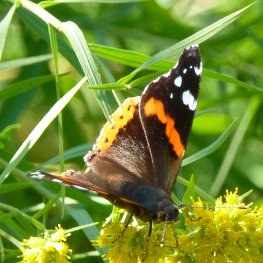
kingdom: Animalia
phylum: Arthropoda
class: Insecta
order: Lepidoptera
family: Nymphalidae
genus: Vanessa
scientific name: Vanessa atalanta
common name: Red Admiral
